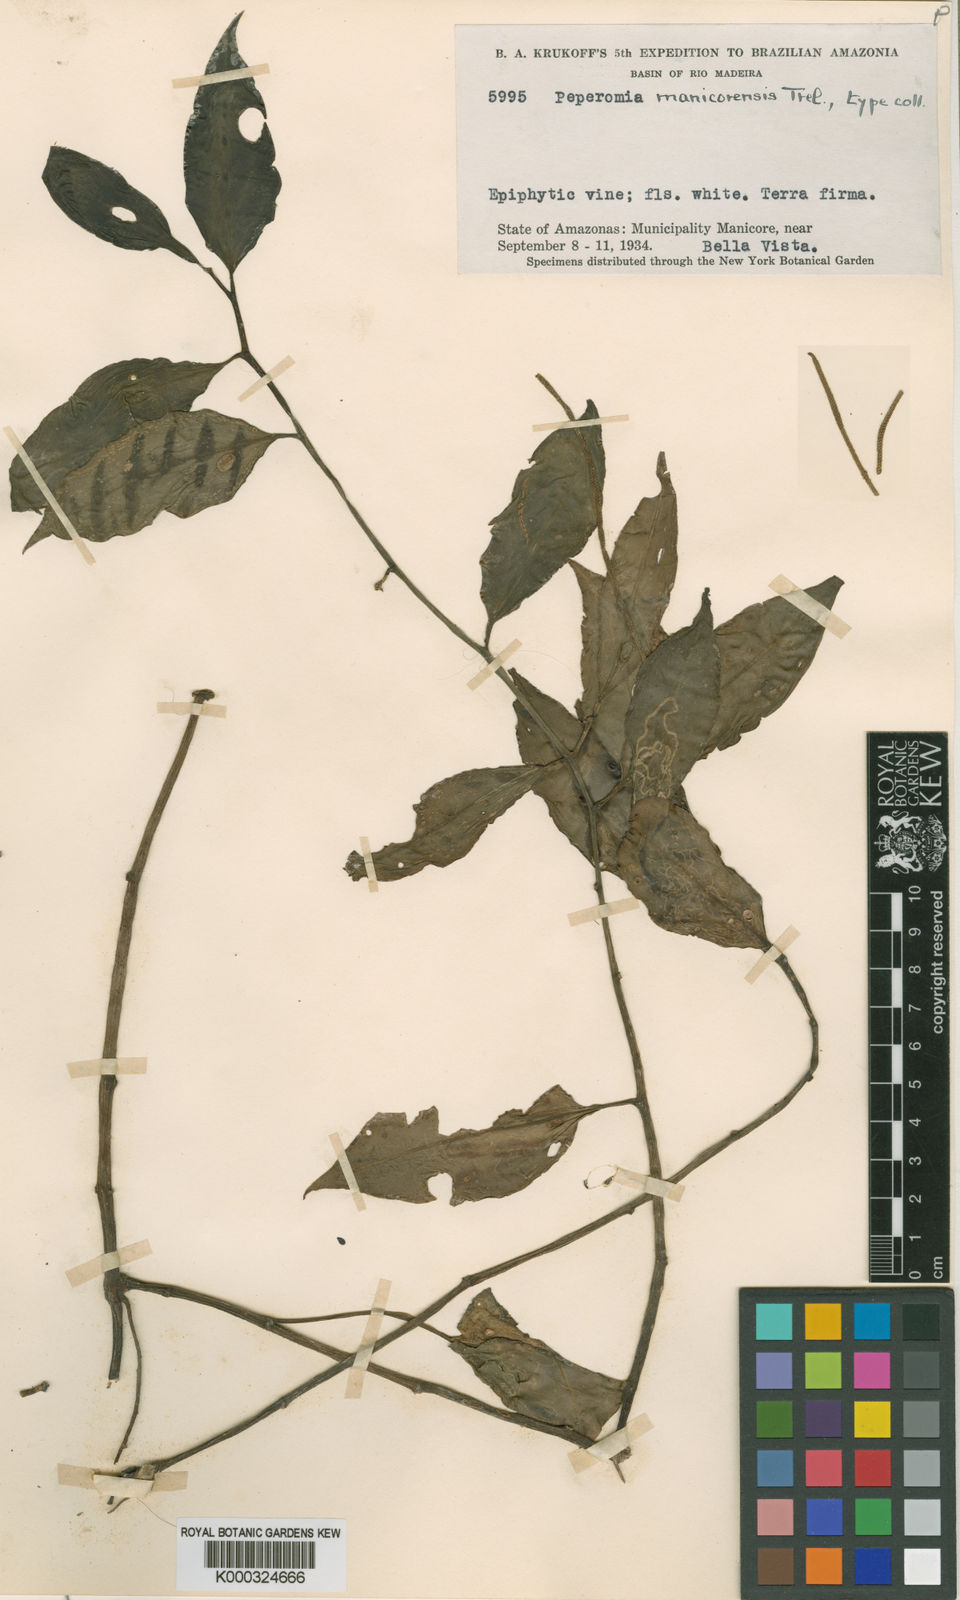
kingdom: Plantae
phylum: Tracheophyta
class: Magnoliopsida
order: Piperales
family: Piperaceae
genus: Peperomia
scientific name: Peperomia mauiensis
